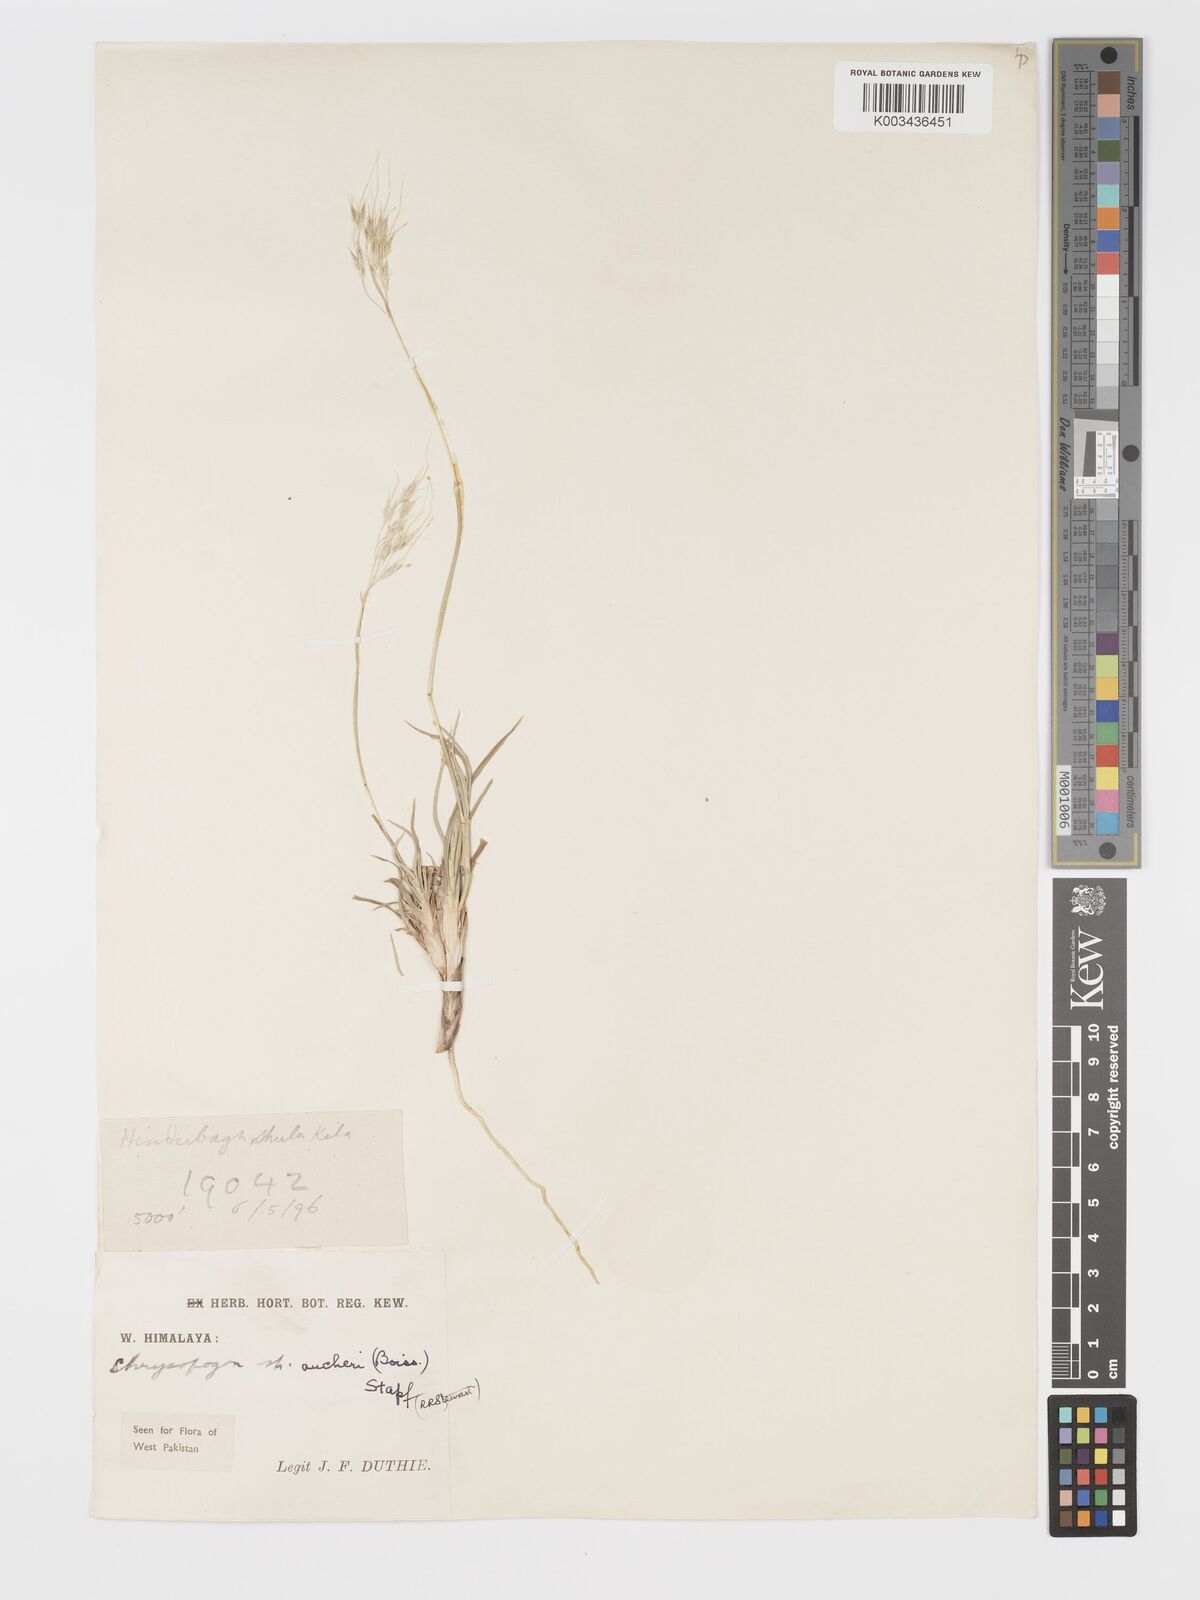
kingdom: Plantae
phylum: Tracheophyta
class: Liliopsida
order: Poales
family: Poaceae
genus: Chrysopogon
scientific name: Chrysopogon aucheri
